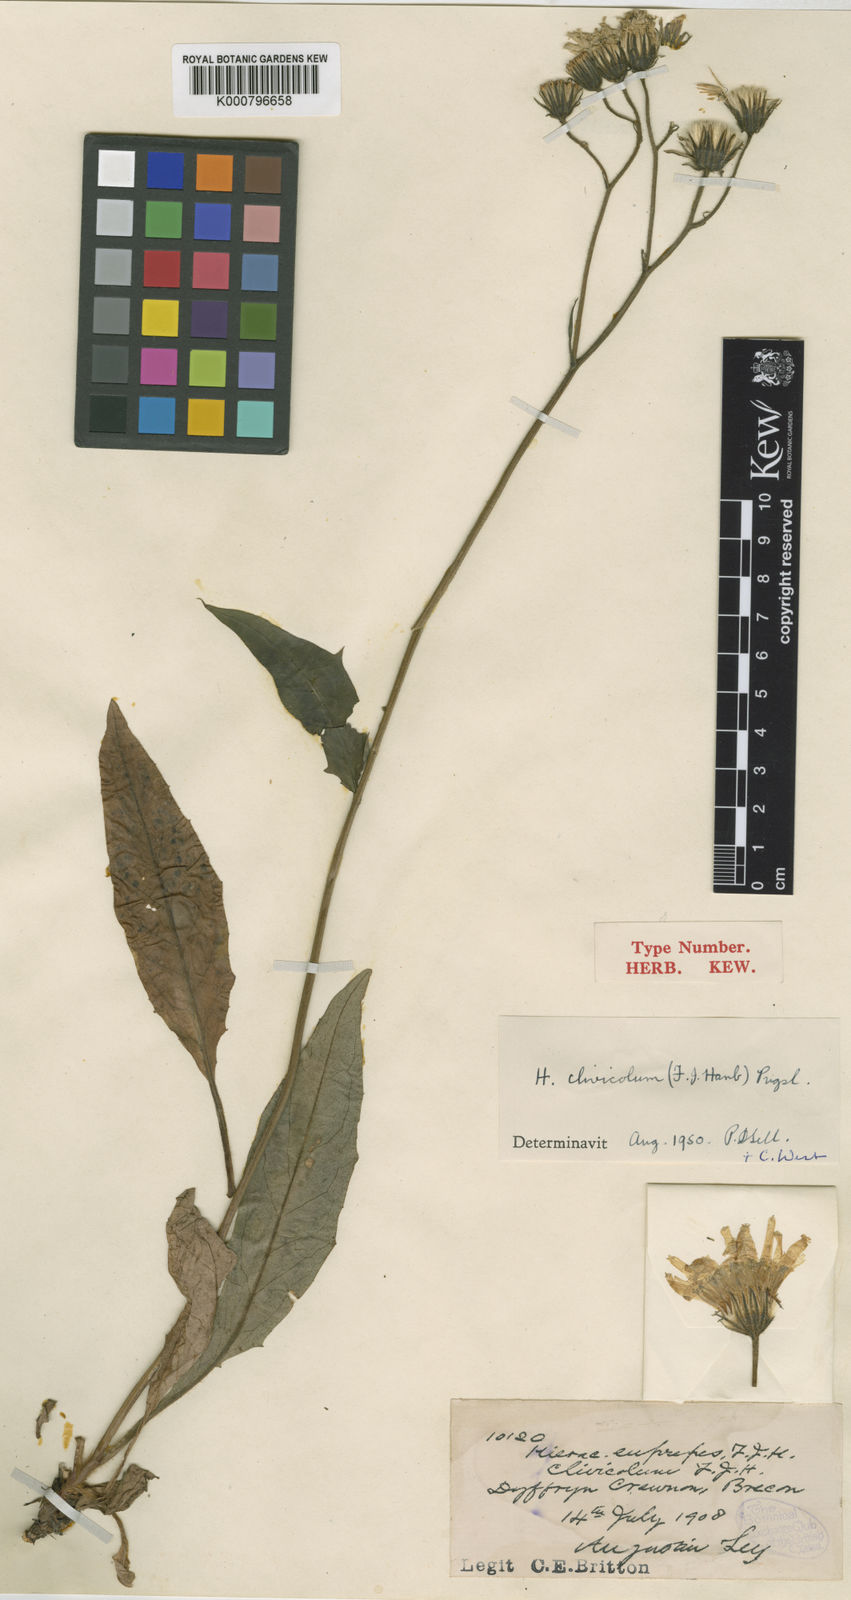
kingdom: Plantae
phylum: Tracheophyta
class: Magnoliopsida
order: Asterales
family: Asteraceae
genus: Hieracium
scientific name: Hieracium clivicola
